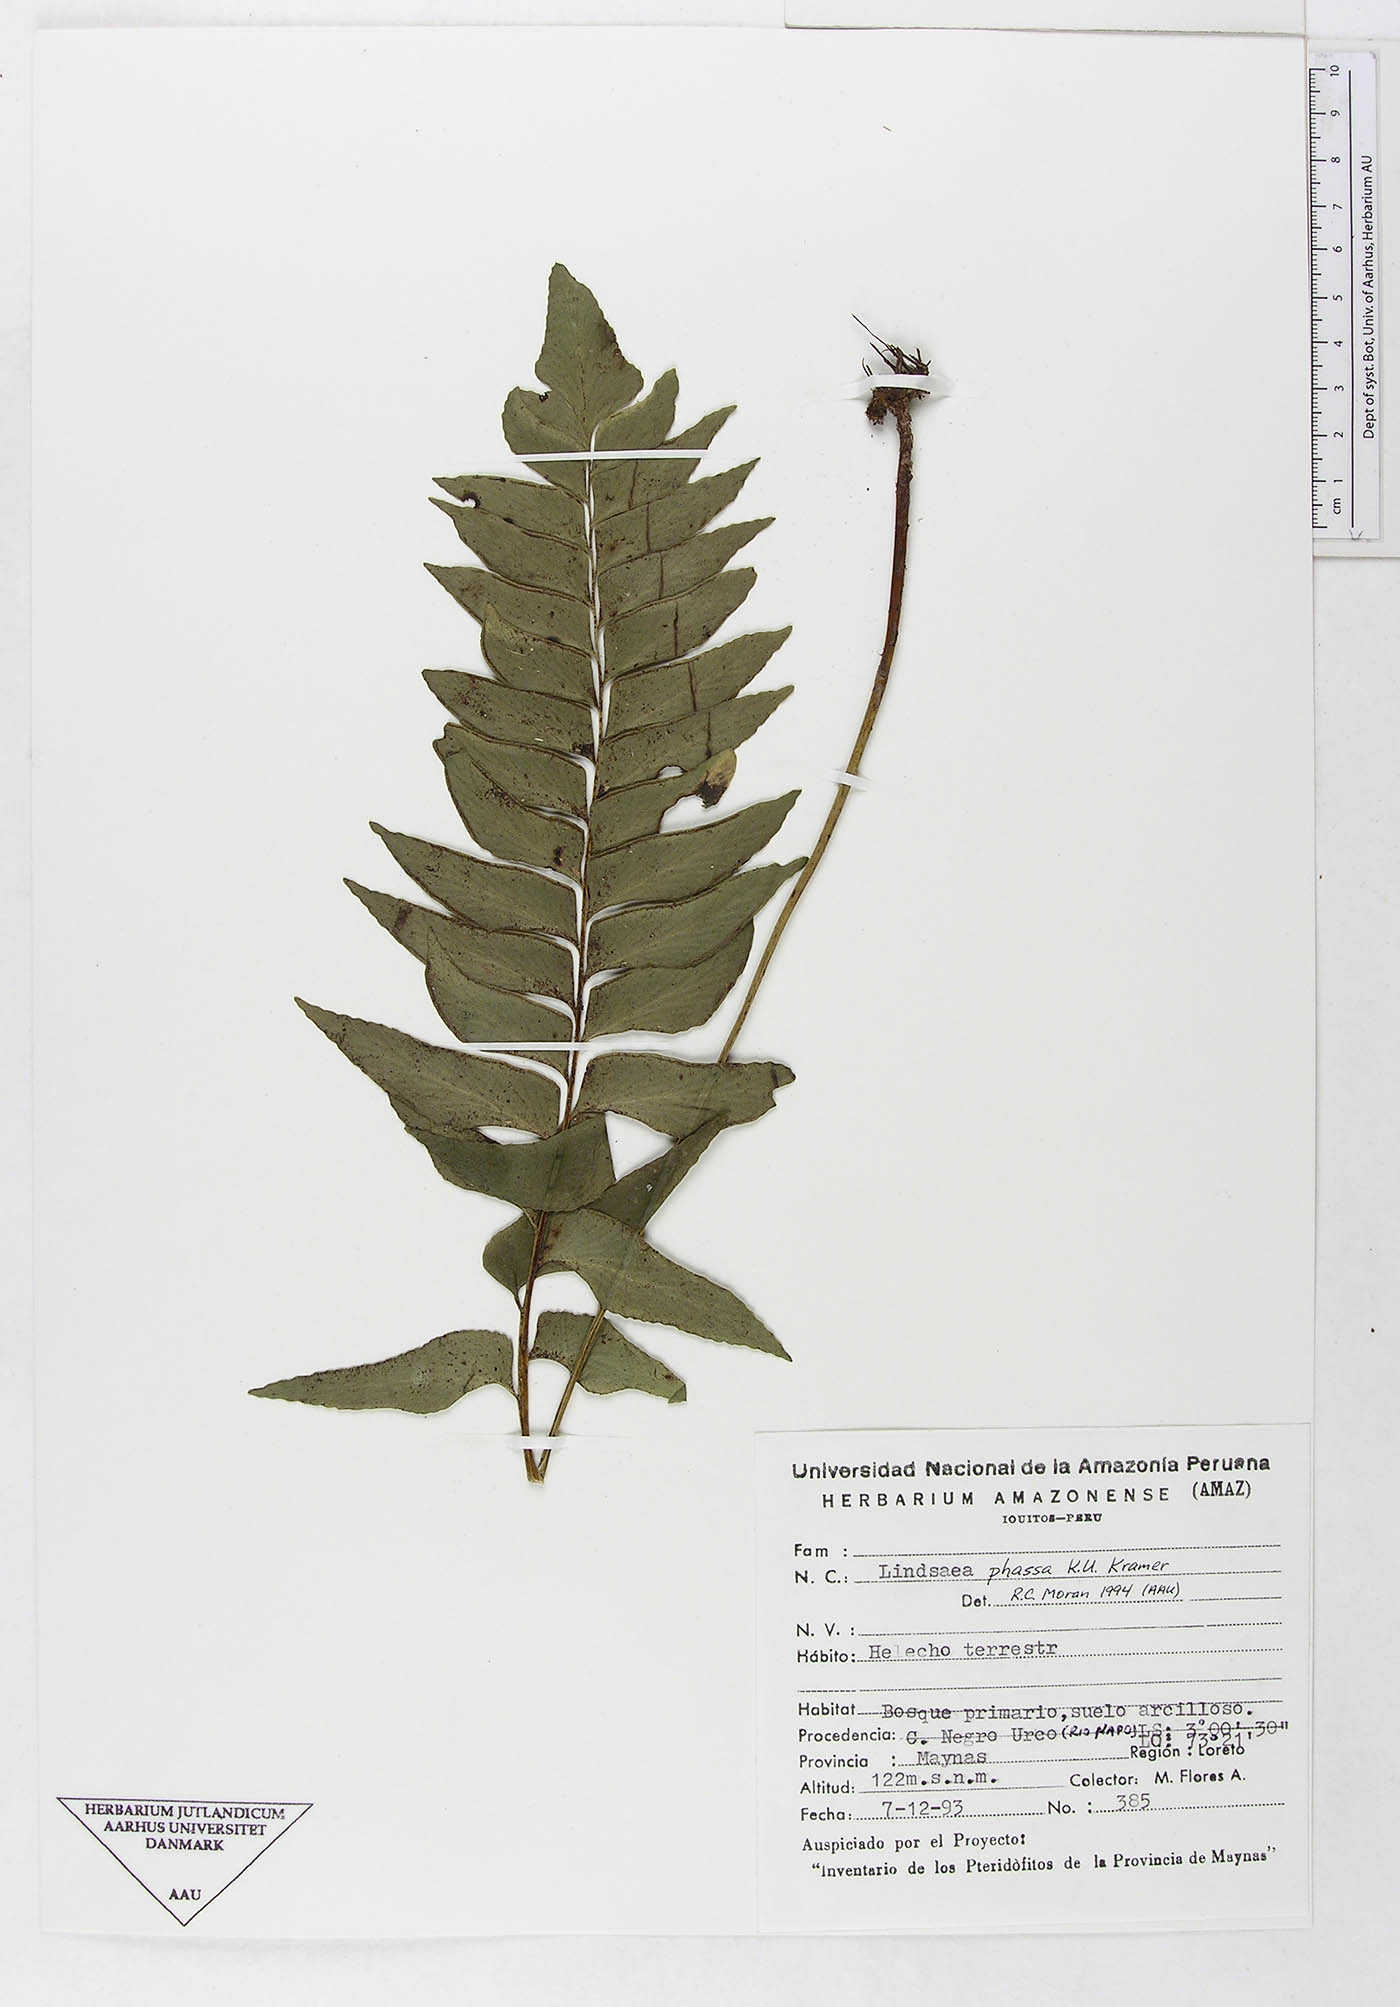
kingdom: Plantae
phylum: Tracheophyta
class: Polypodiopsida
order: Polypodiales
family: Lindsaeaceae
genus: Lindsaea
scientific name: Lindsaea phassa
